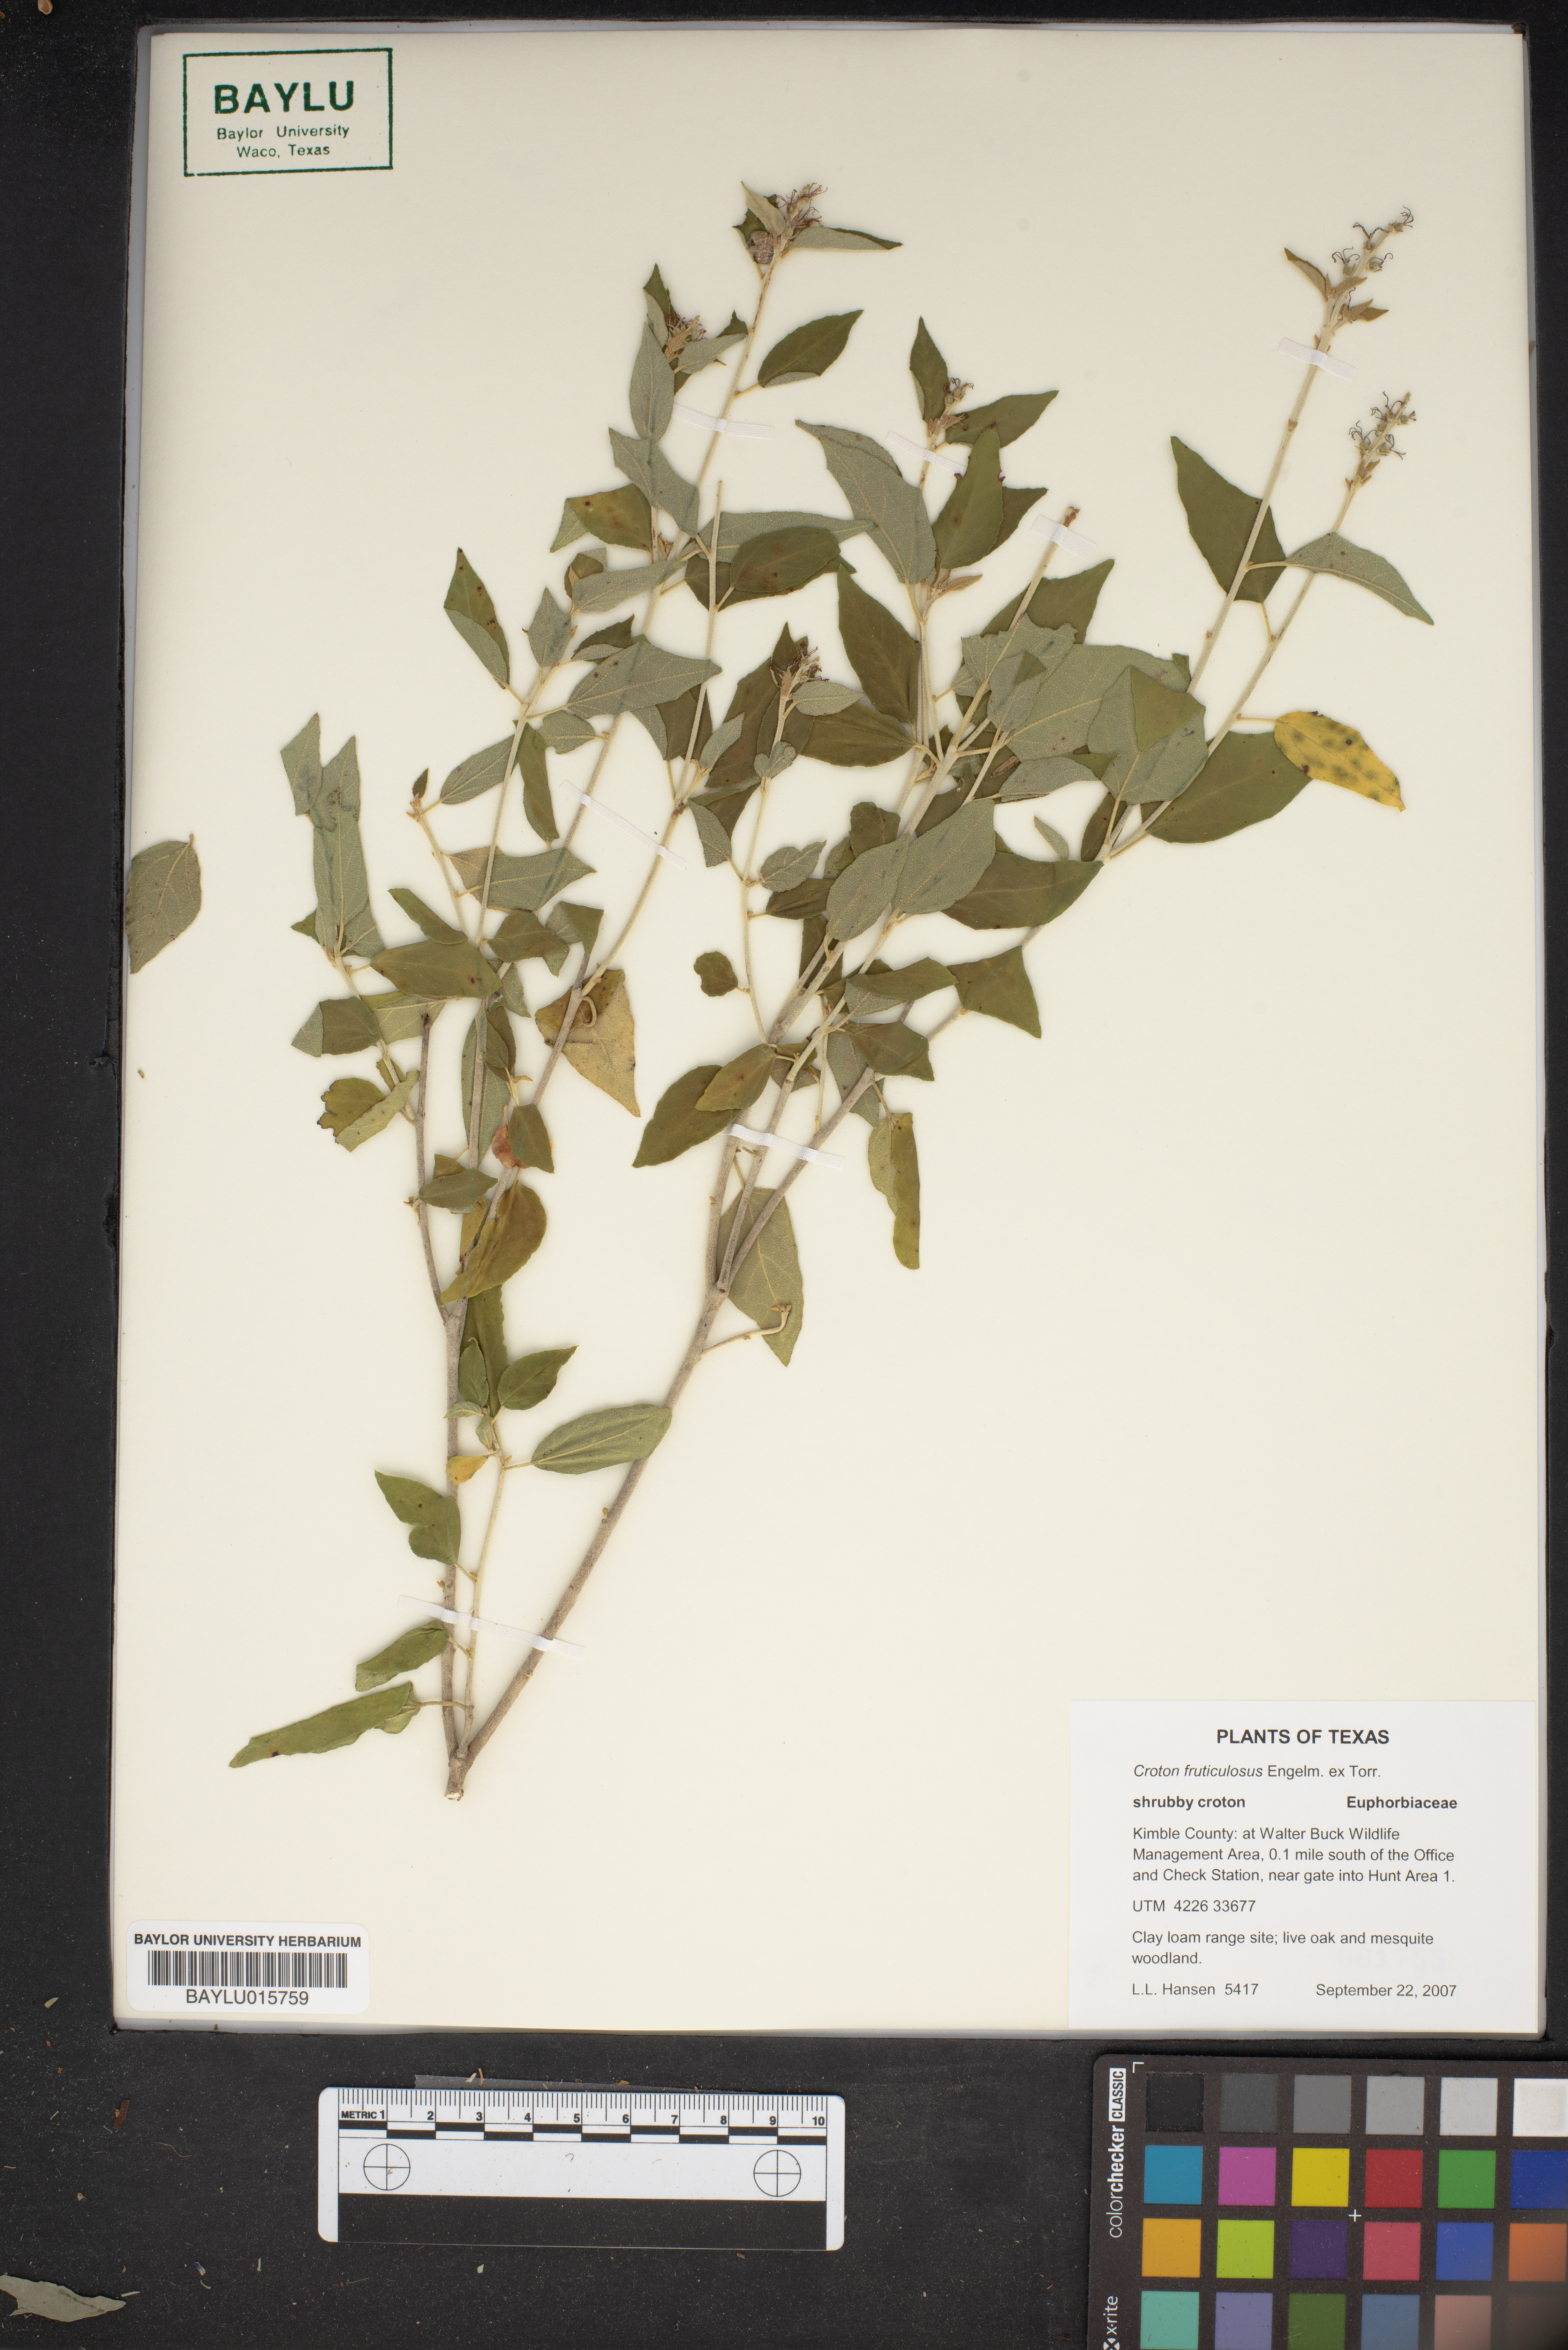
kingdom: Plantae
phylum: Tracheophyta
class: Magnoliopsida
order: Malpighiales
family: Euphorbiaceae
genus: Croton
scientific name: Croton fruticulosus
